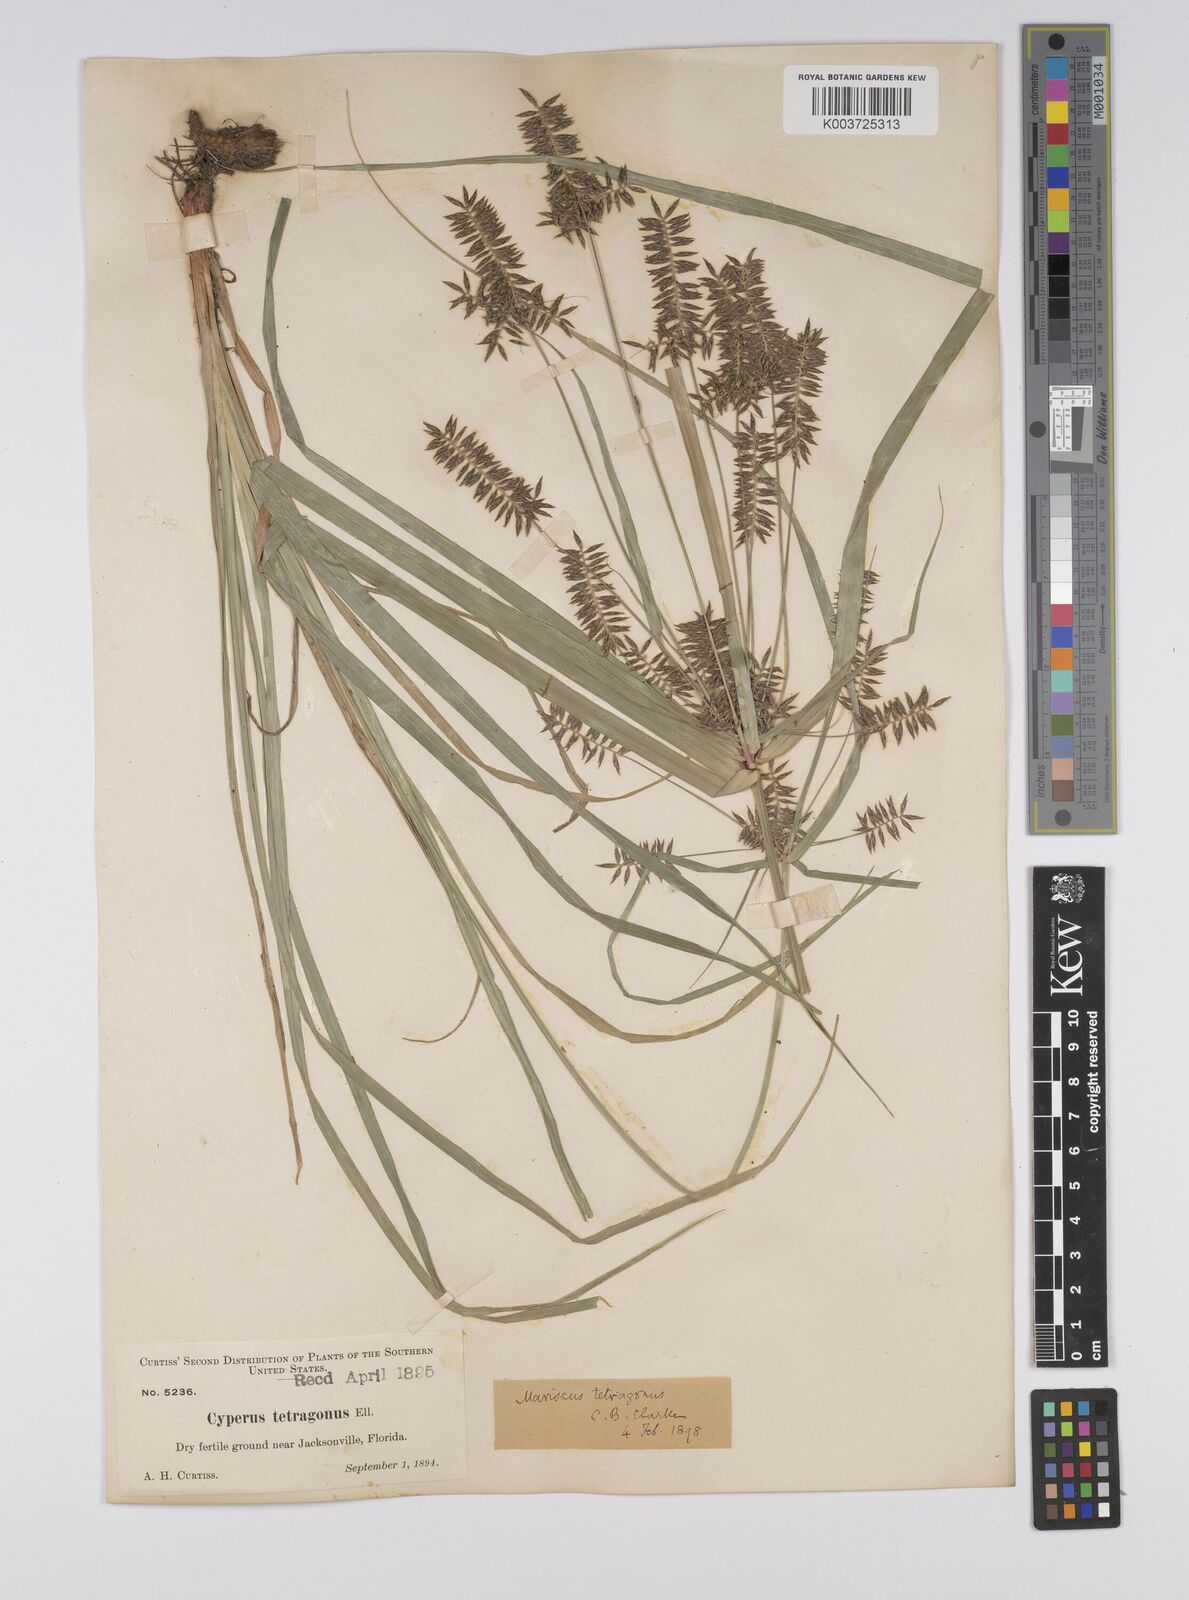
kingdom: Plantae
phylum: Tracheophyta
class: Liliopsida
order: Poales
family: Cyperaceae
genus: Cyperus
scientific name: Cyperus tetragonus
